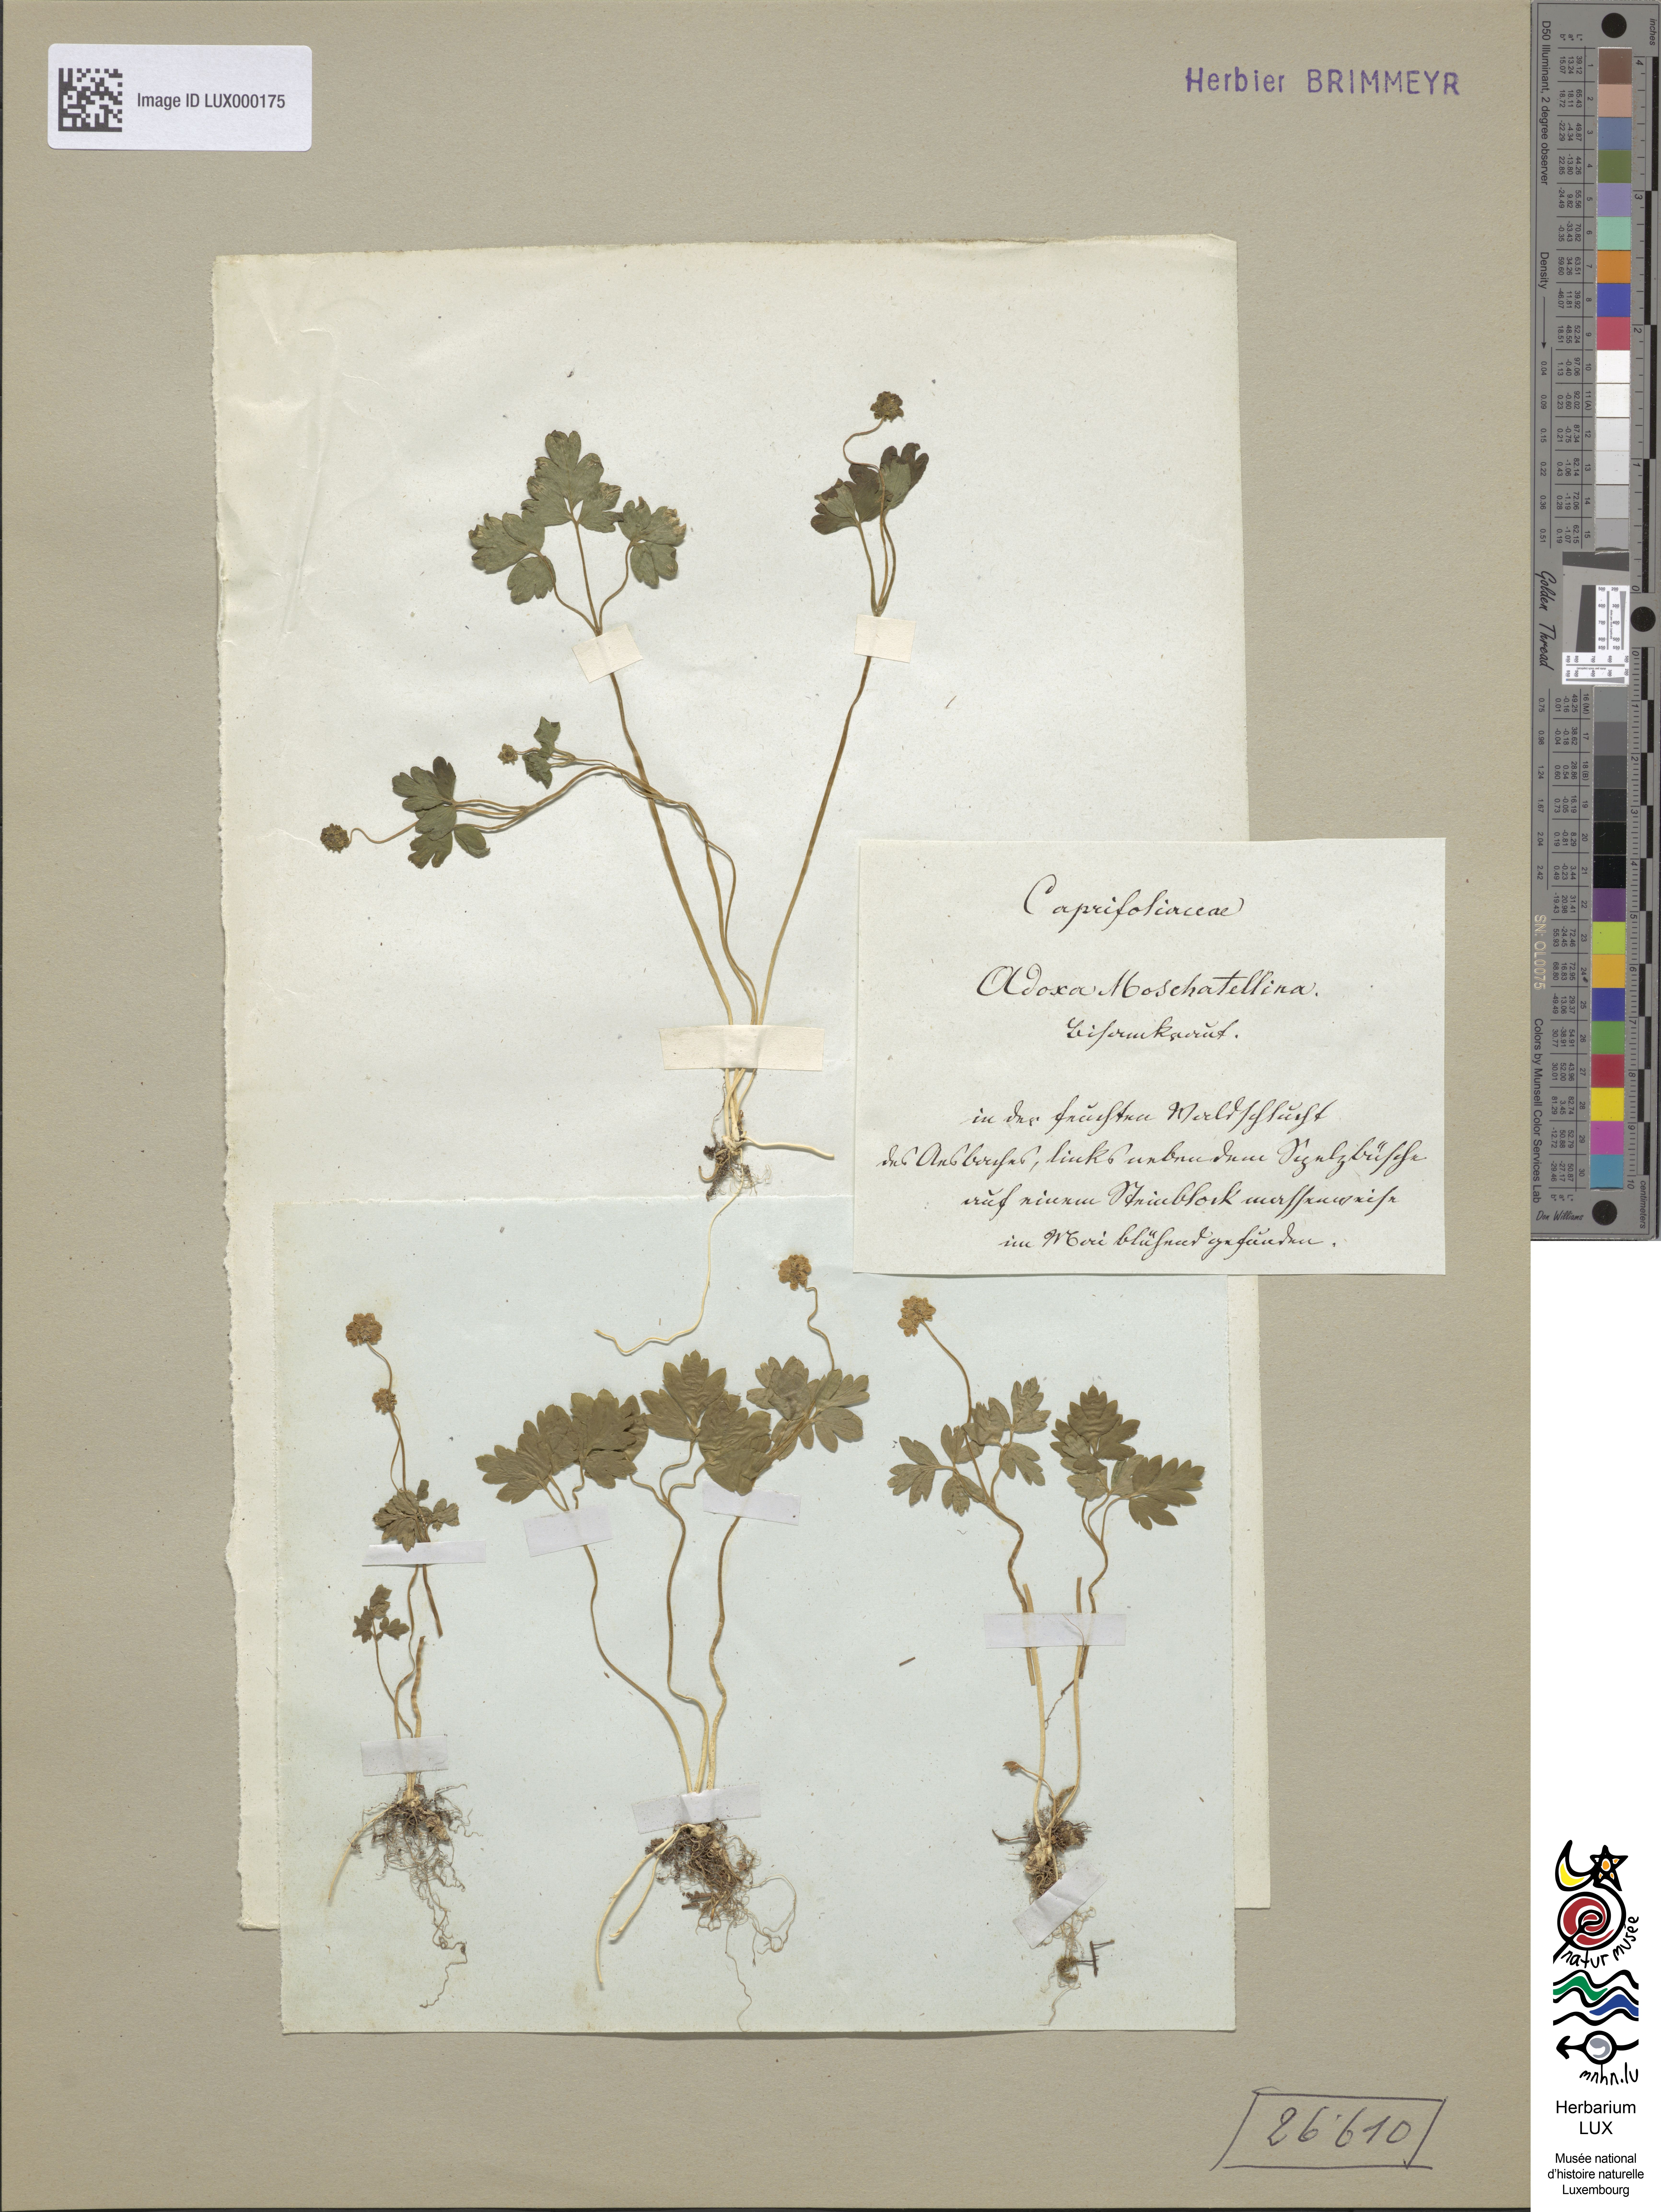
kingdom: Plantae
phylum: Tracheophyta
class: Magnoliopsida
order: Dipsacales
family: Viburnaceae
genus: Adoxa
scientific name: Adoxa moschatellina
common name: Moschatel
